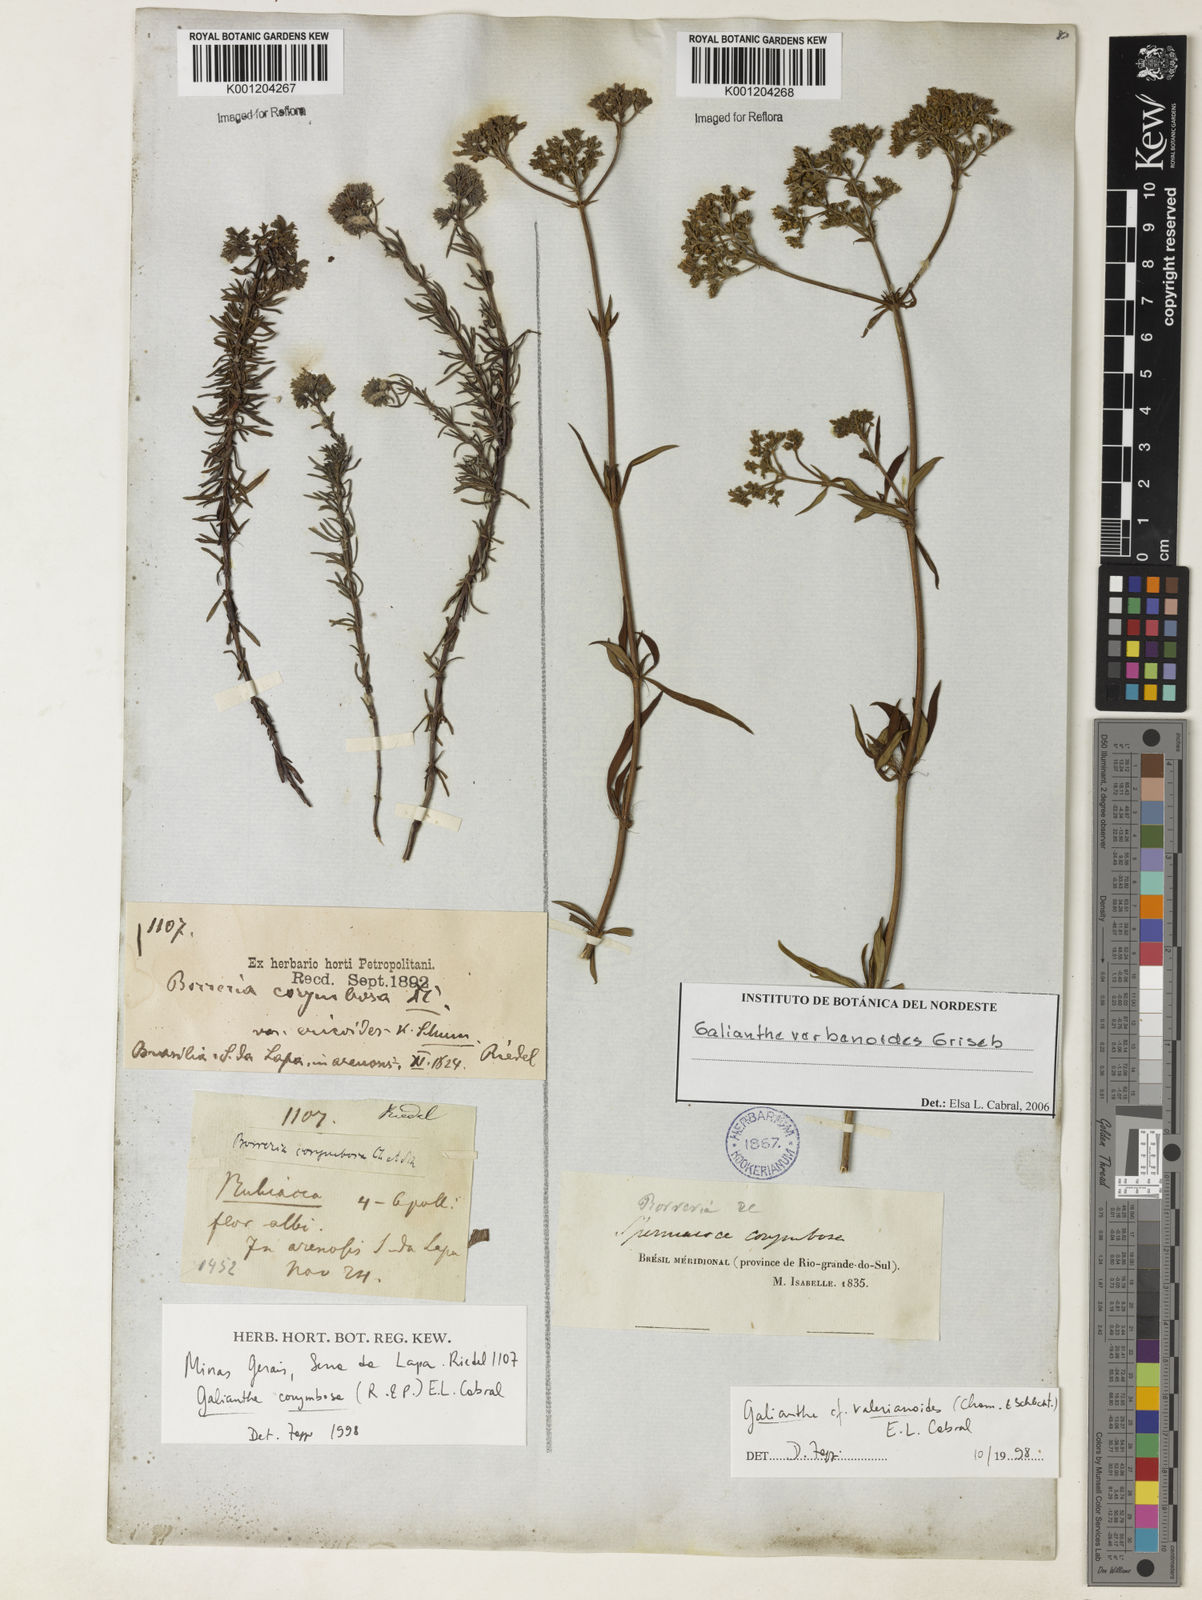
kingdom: Plantae
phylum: Tracheophyta
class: Magnoliopsida
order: Gentianales
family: Rubiaceae
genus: Galianthe
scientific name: Galianthe verbenoides
